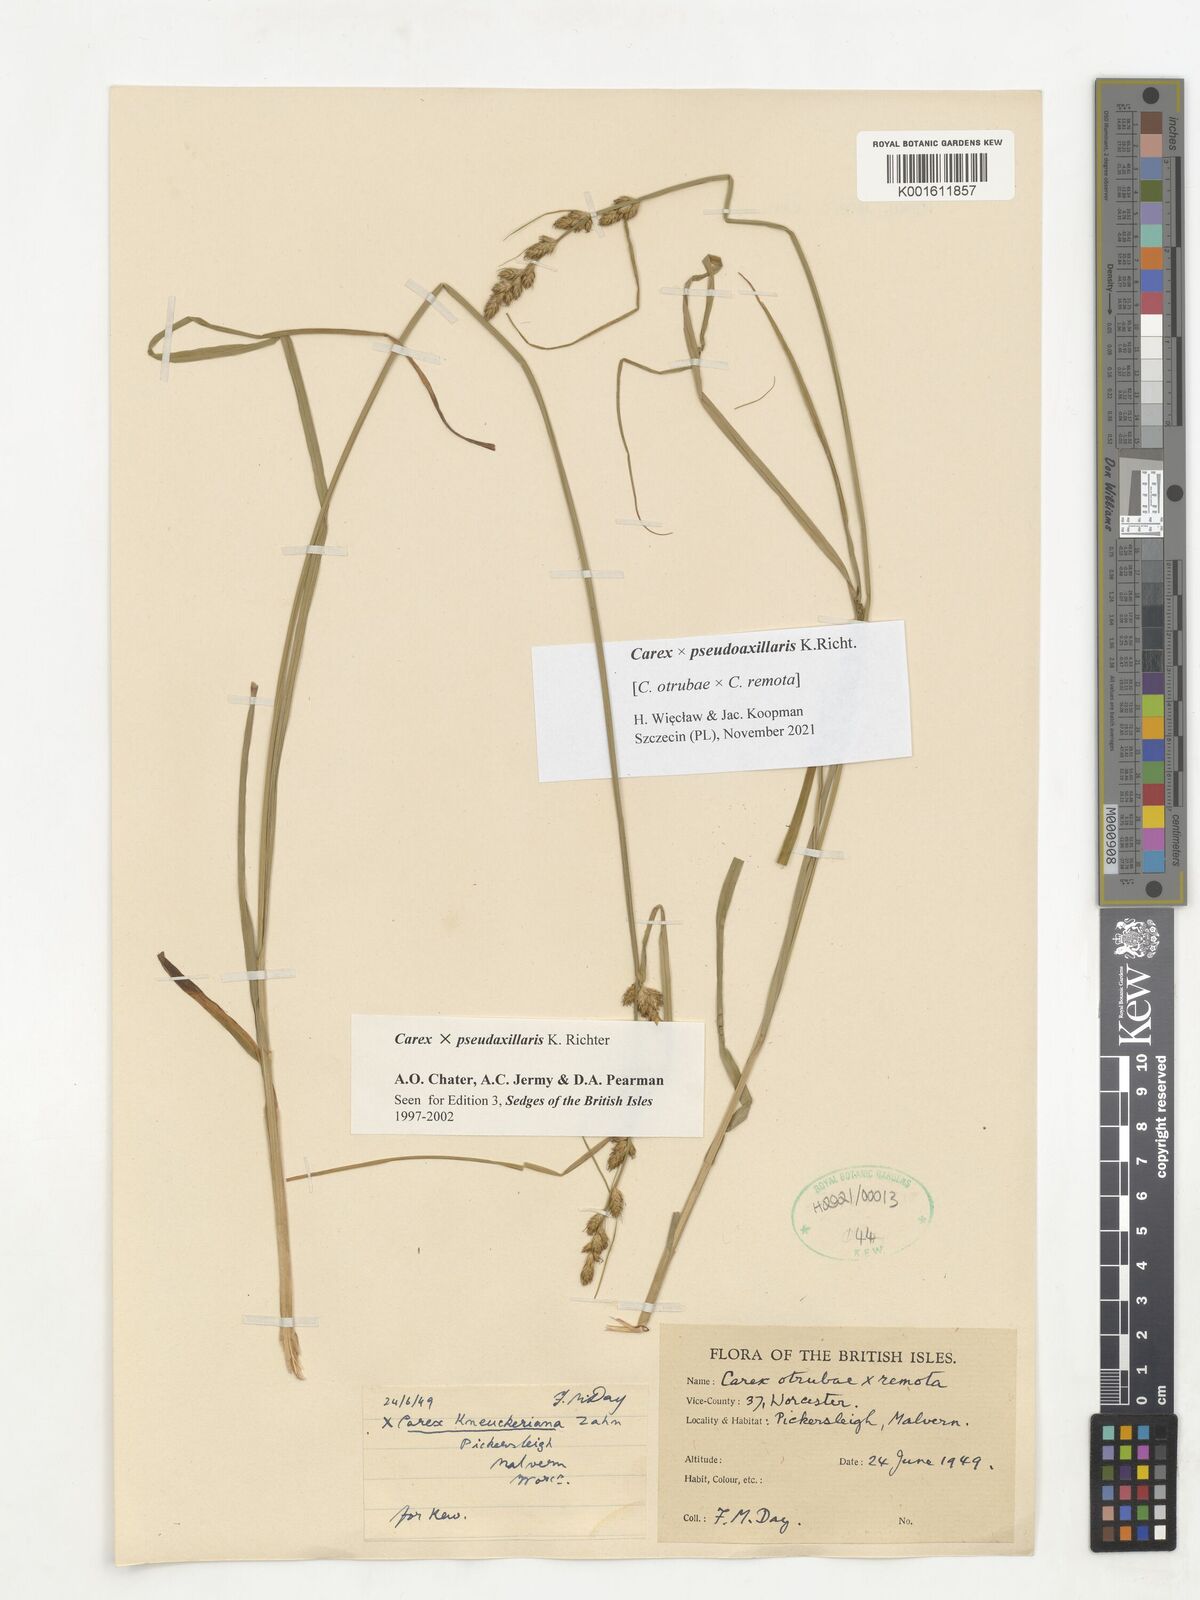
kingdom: Plantae
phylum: Tracheophyta
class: Liliopsida
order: Poales
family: Cyperaceae
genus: Carex
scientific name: Carex pseudoaxillaris
